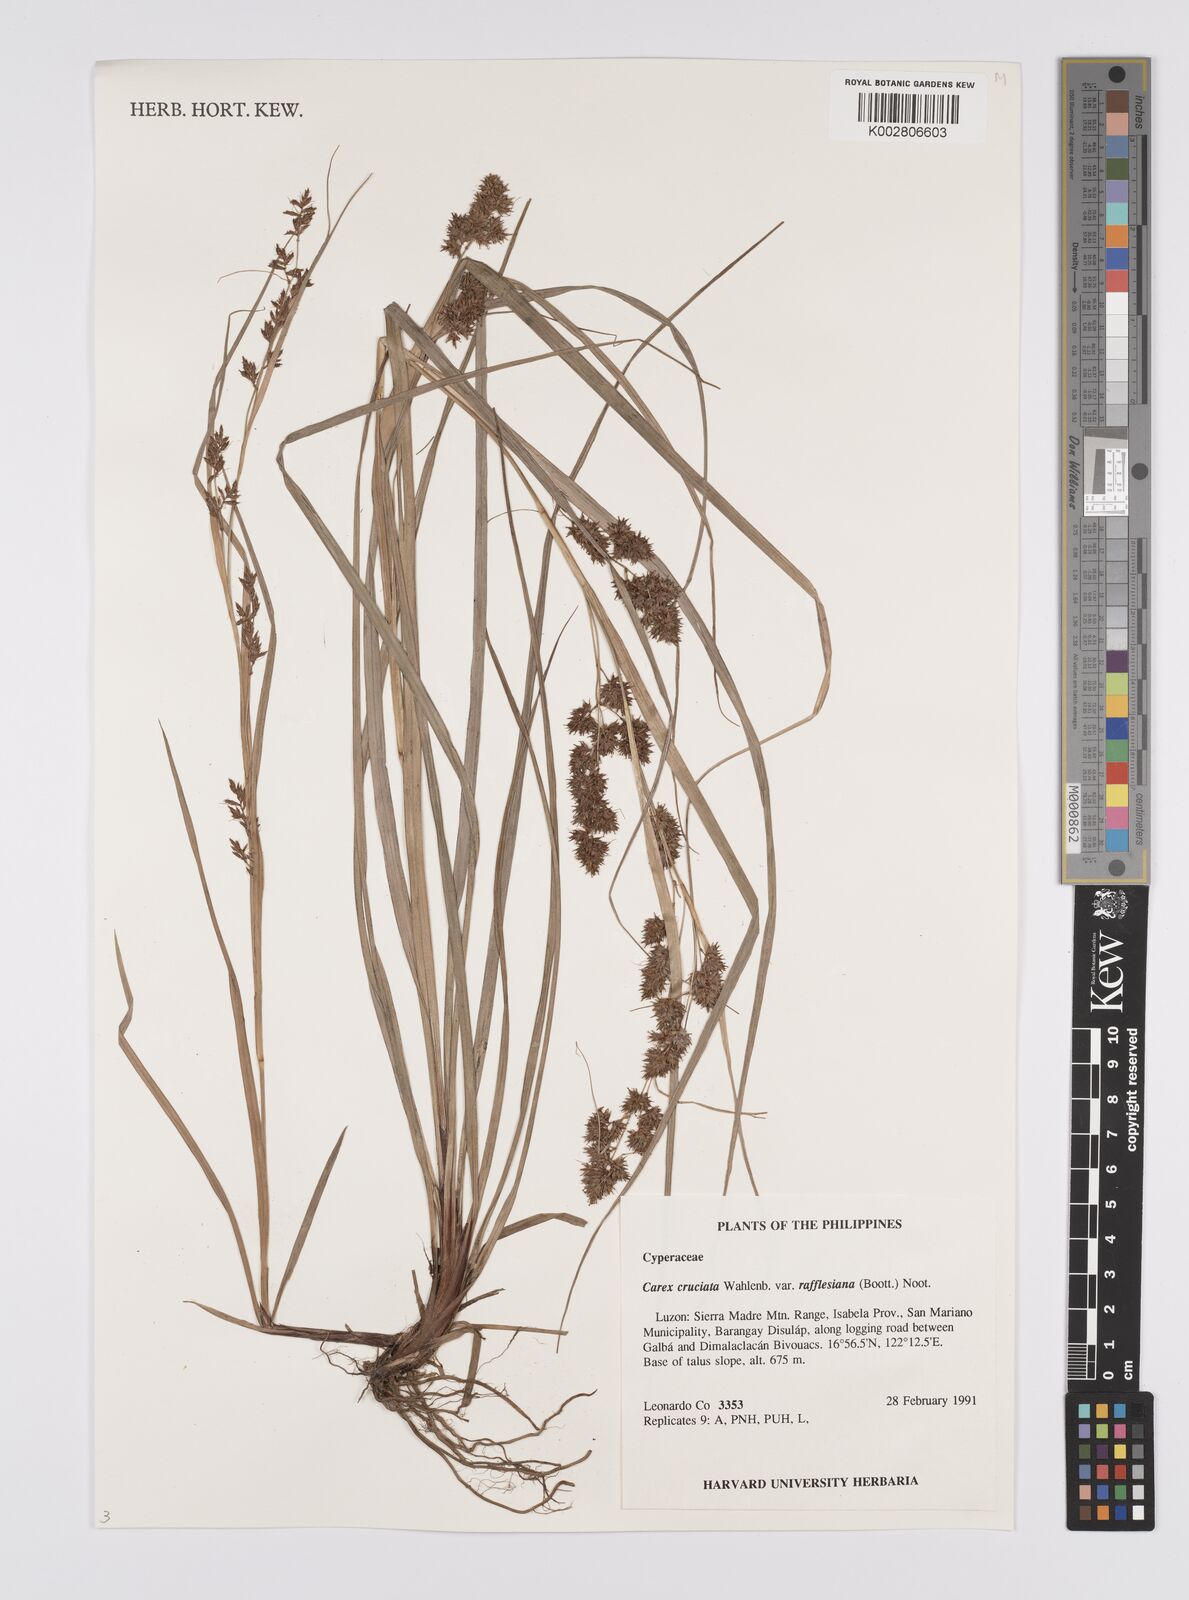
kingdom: Plantae
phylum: Tracheophyta
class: Liliopsida
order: Poales
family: Cyperaceae
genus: Carex
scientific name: Carex rafflesiana
